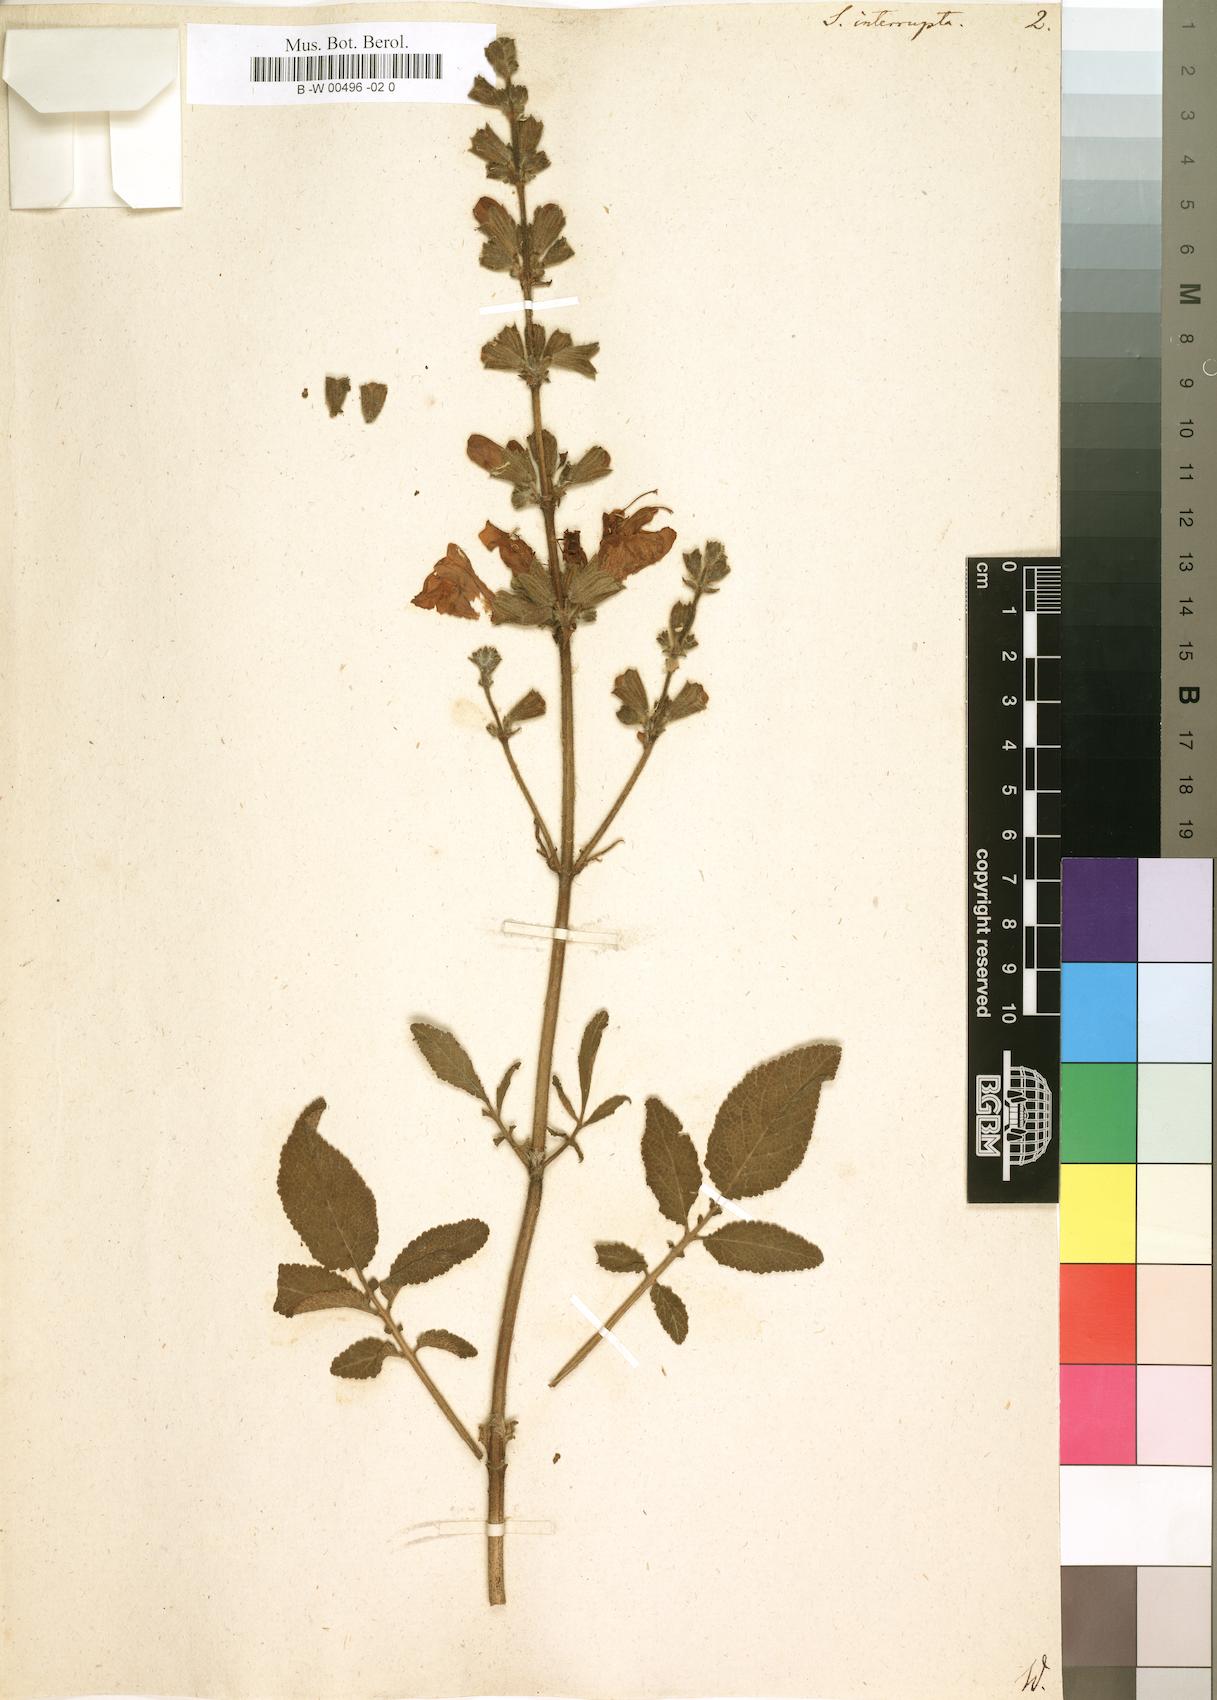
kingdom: Plantae
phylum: Tracheophyta
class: Magnoliopsida
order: Lamiales
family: Lamiaceae
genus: Salvia
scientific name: Salvia interrupta
